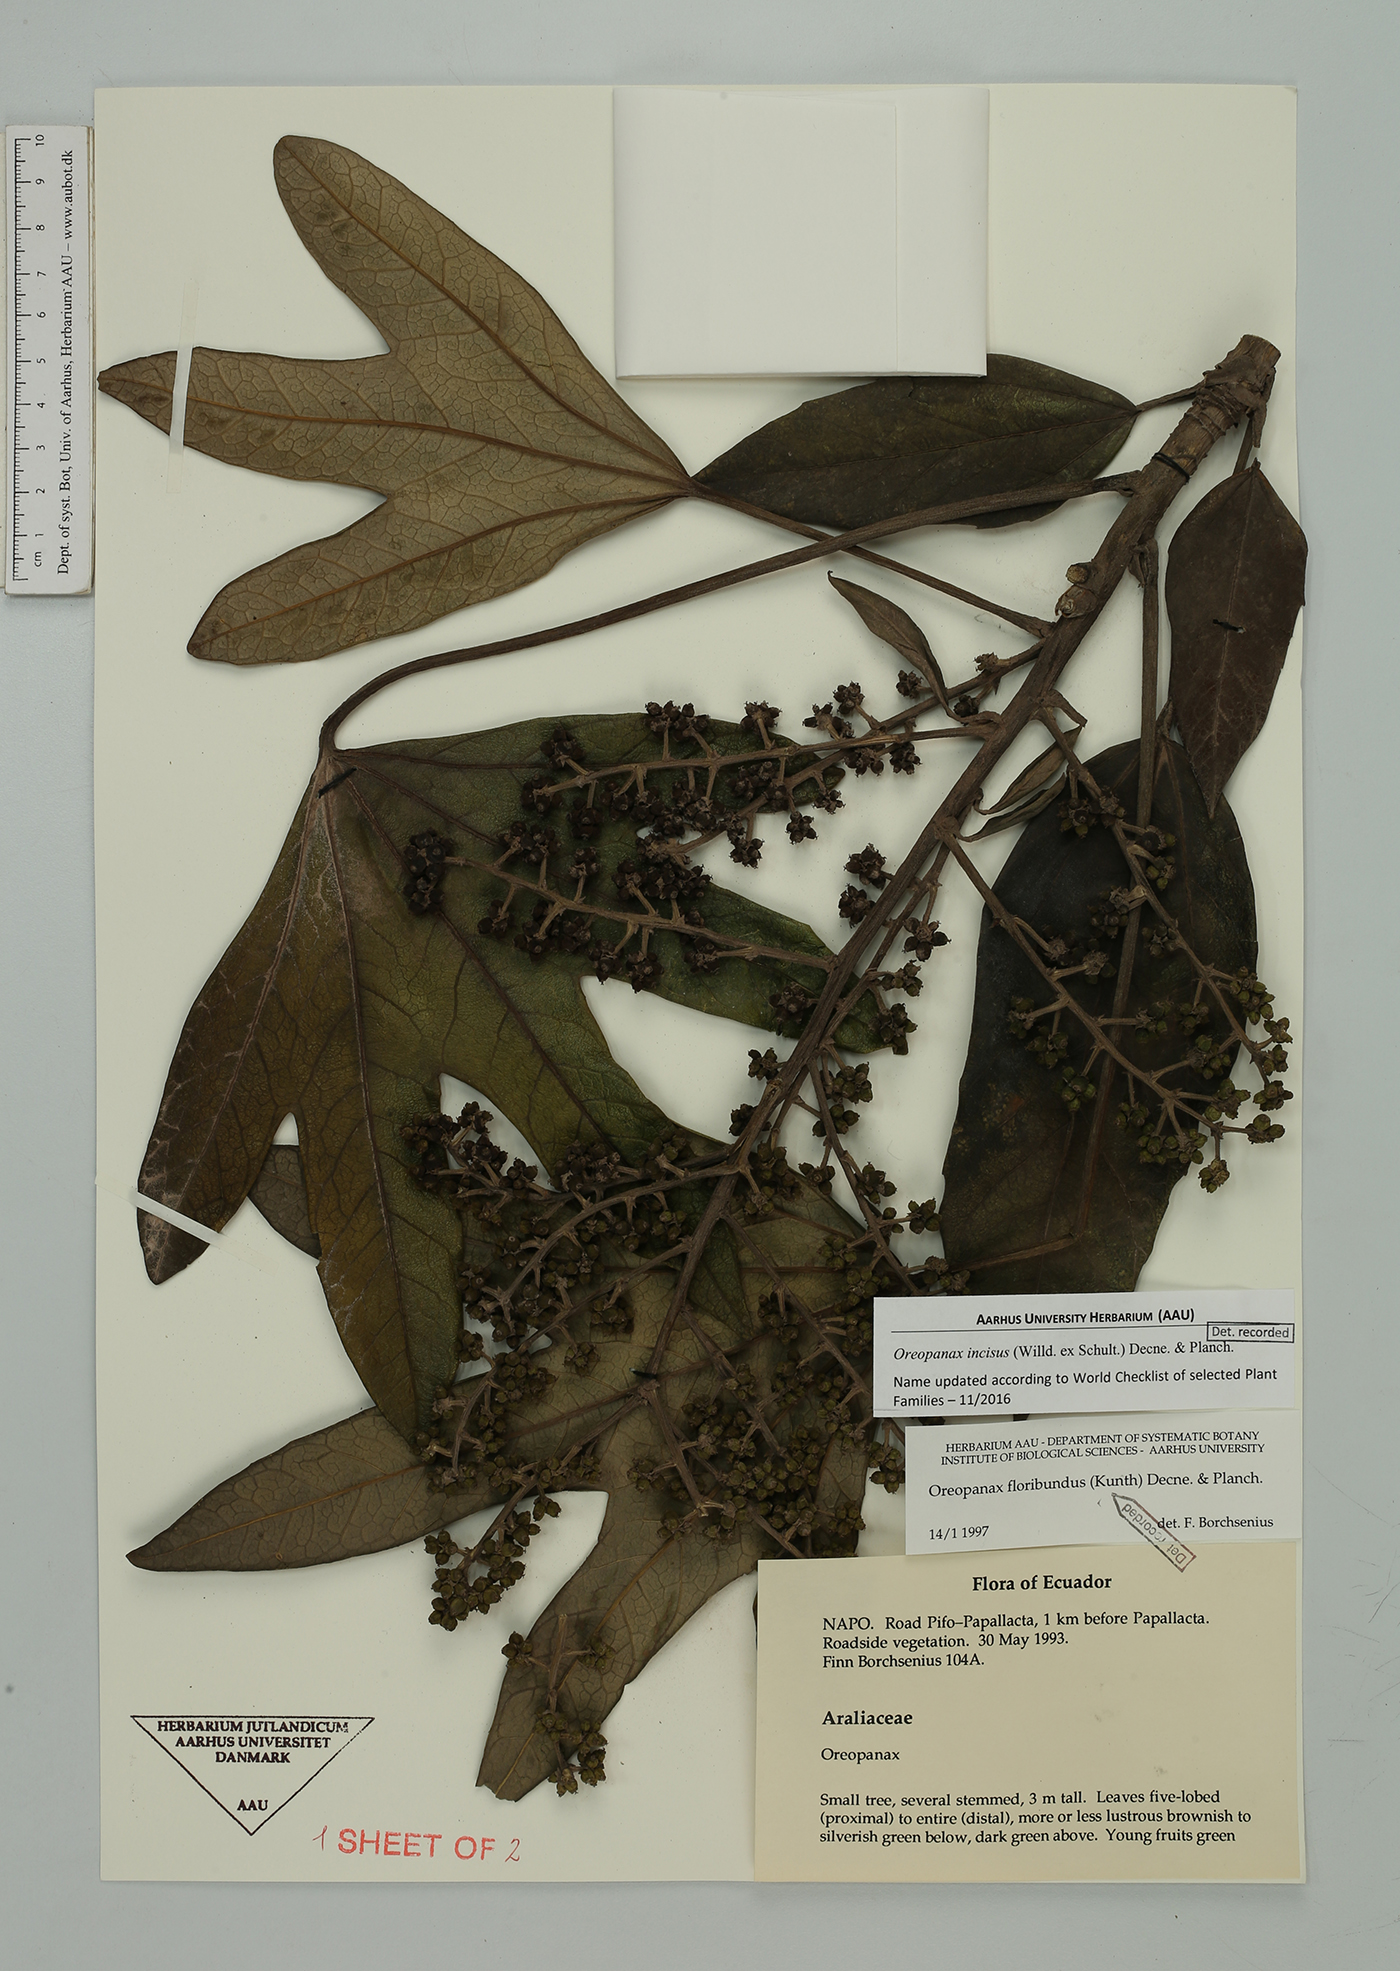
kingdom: Plantae
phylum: Tracheophyta
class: Magnoliopsida
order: Apiales
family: Araliaceae
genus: Oreopanax
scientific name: Oreopanax incisus
